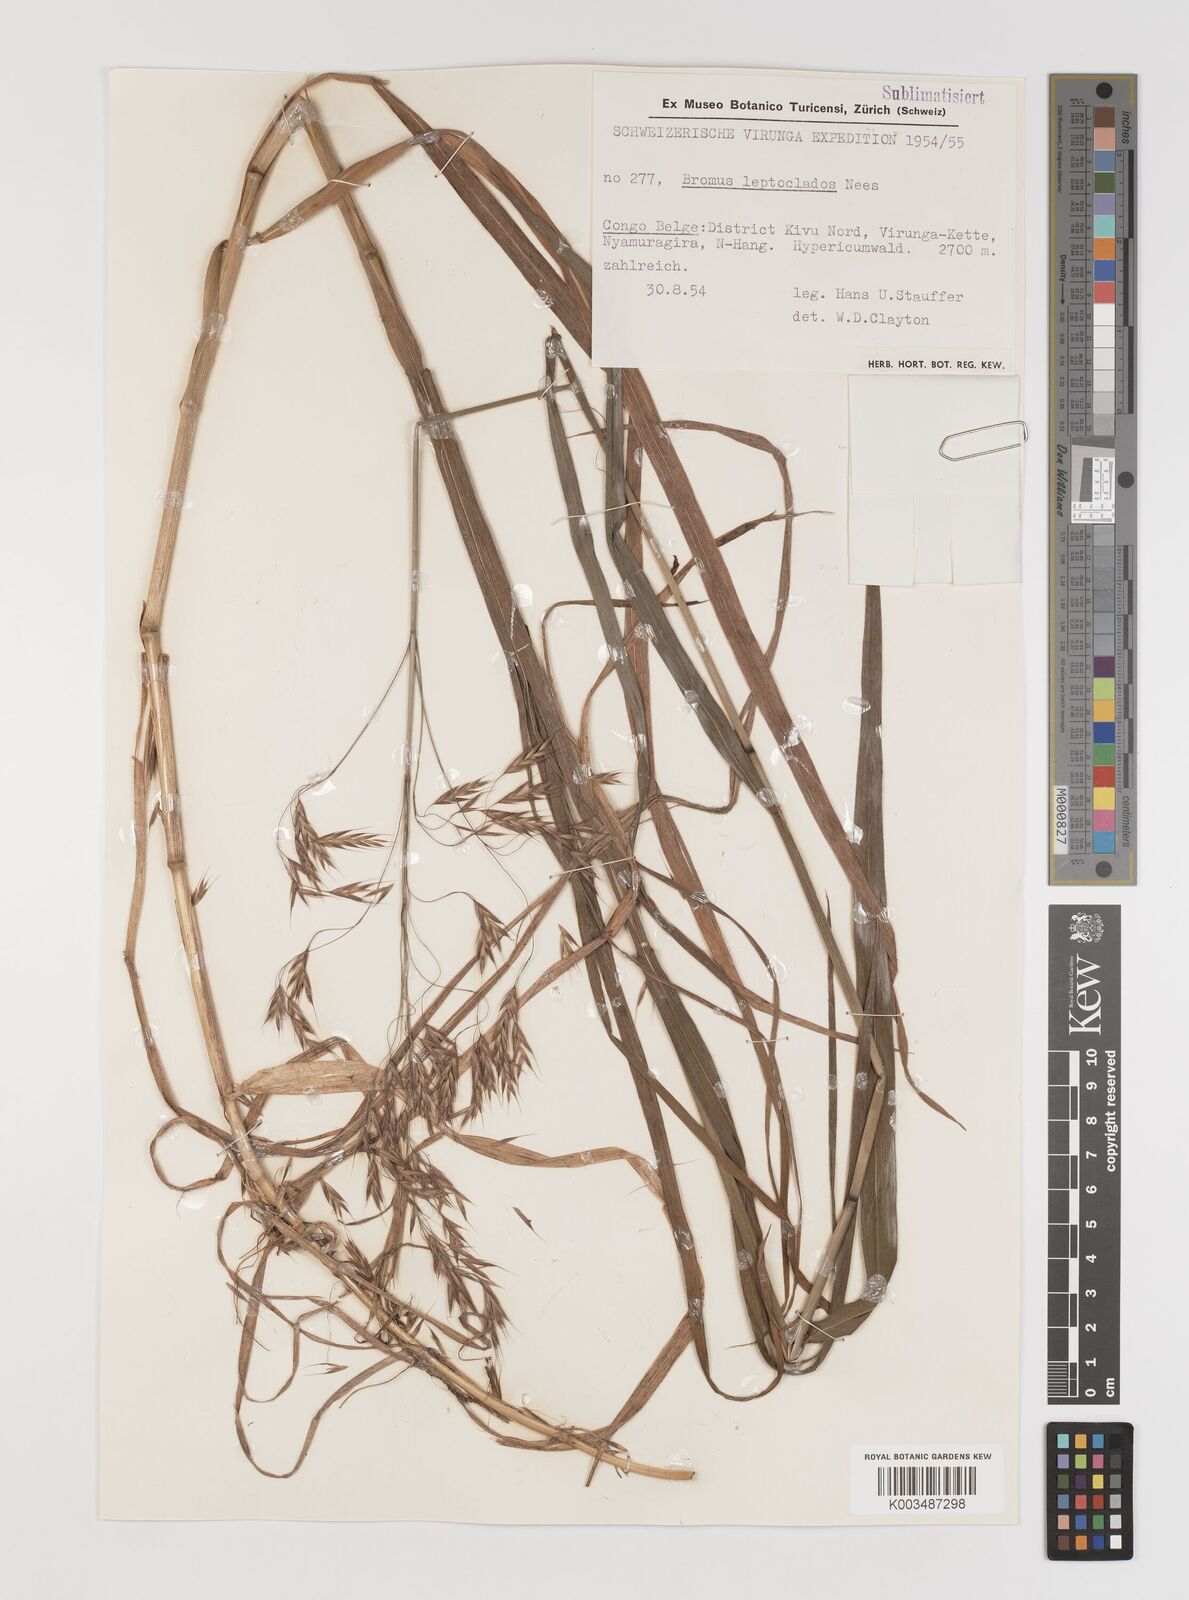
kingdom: Plantae
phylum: Tracheophyta
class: Liliopsida
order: Poales
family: Poaceae
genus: Bromus
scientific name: Bromus leptoclados
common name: Mountain bromegrass
